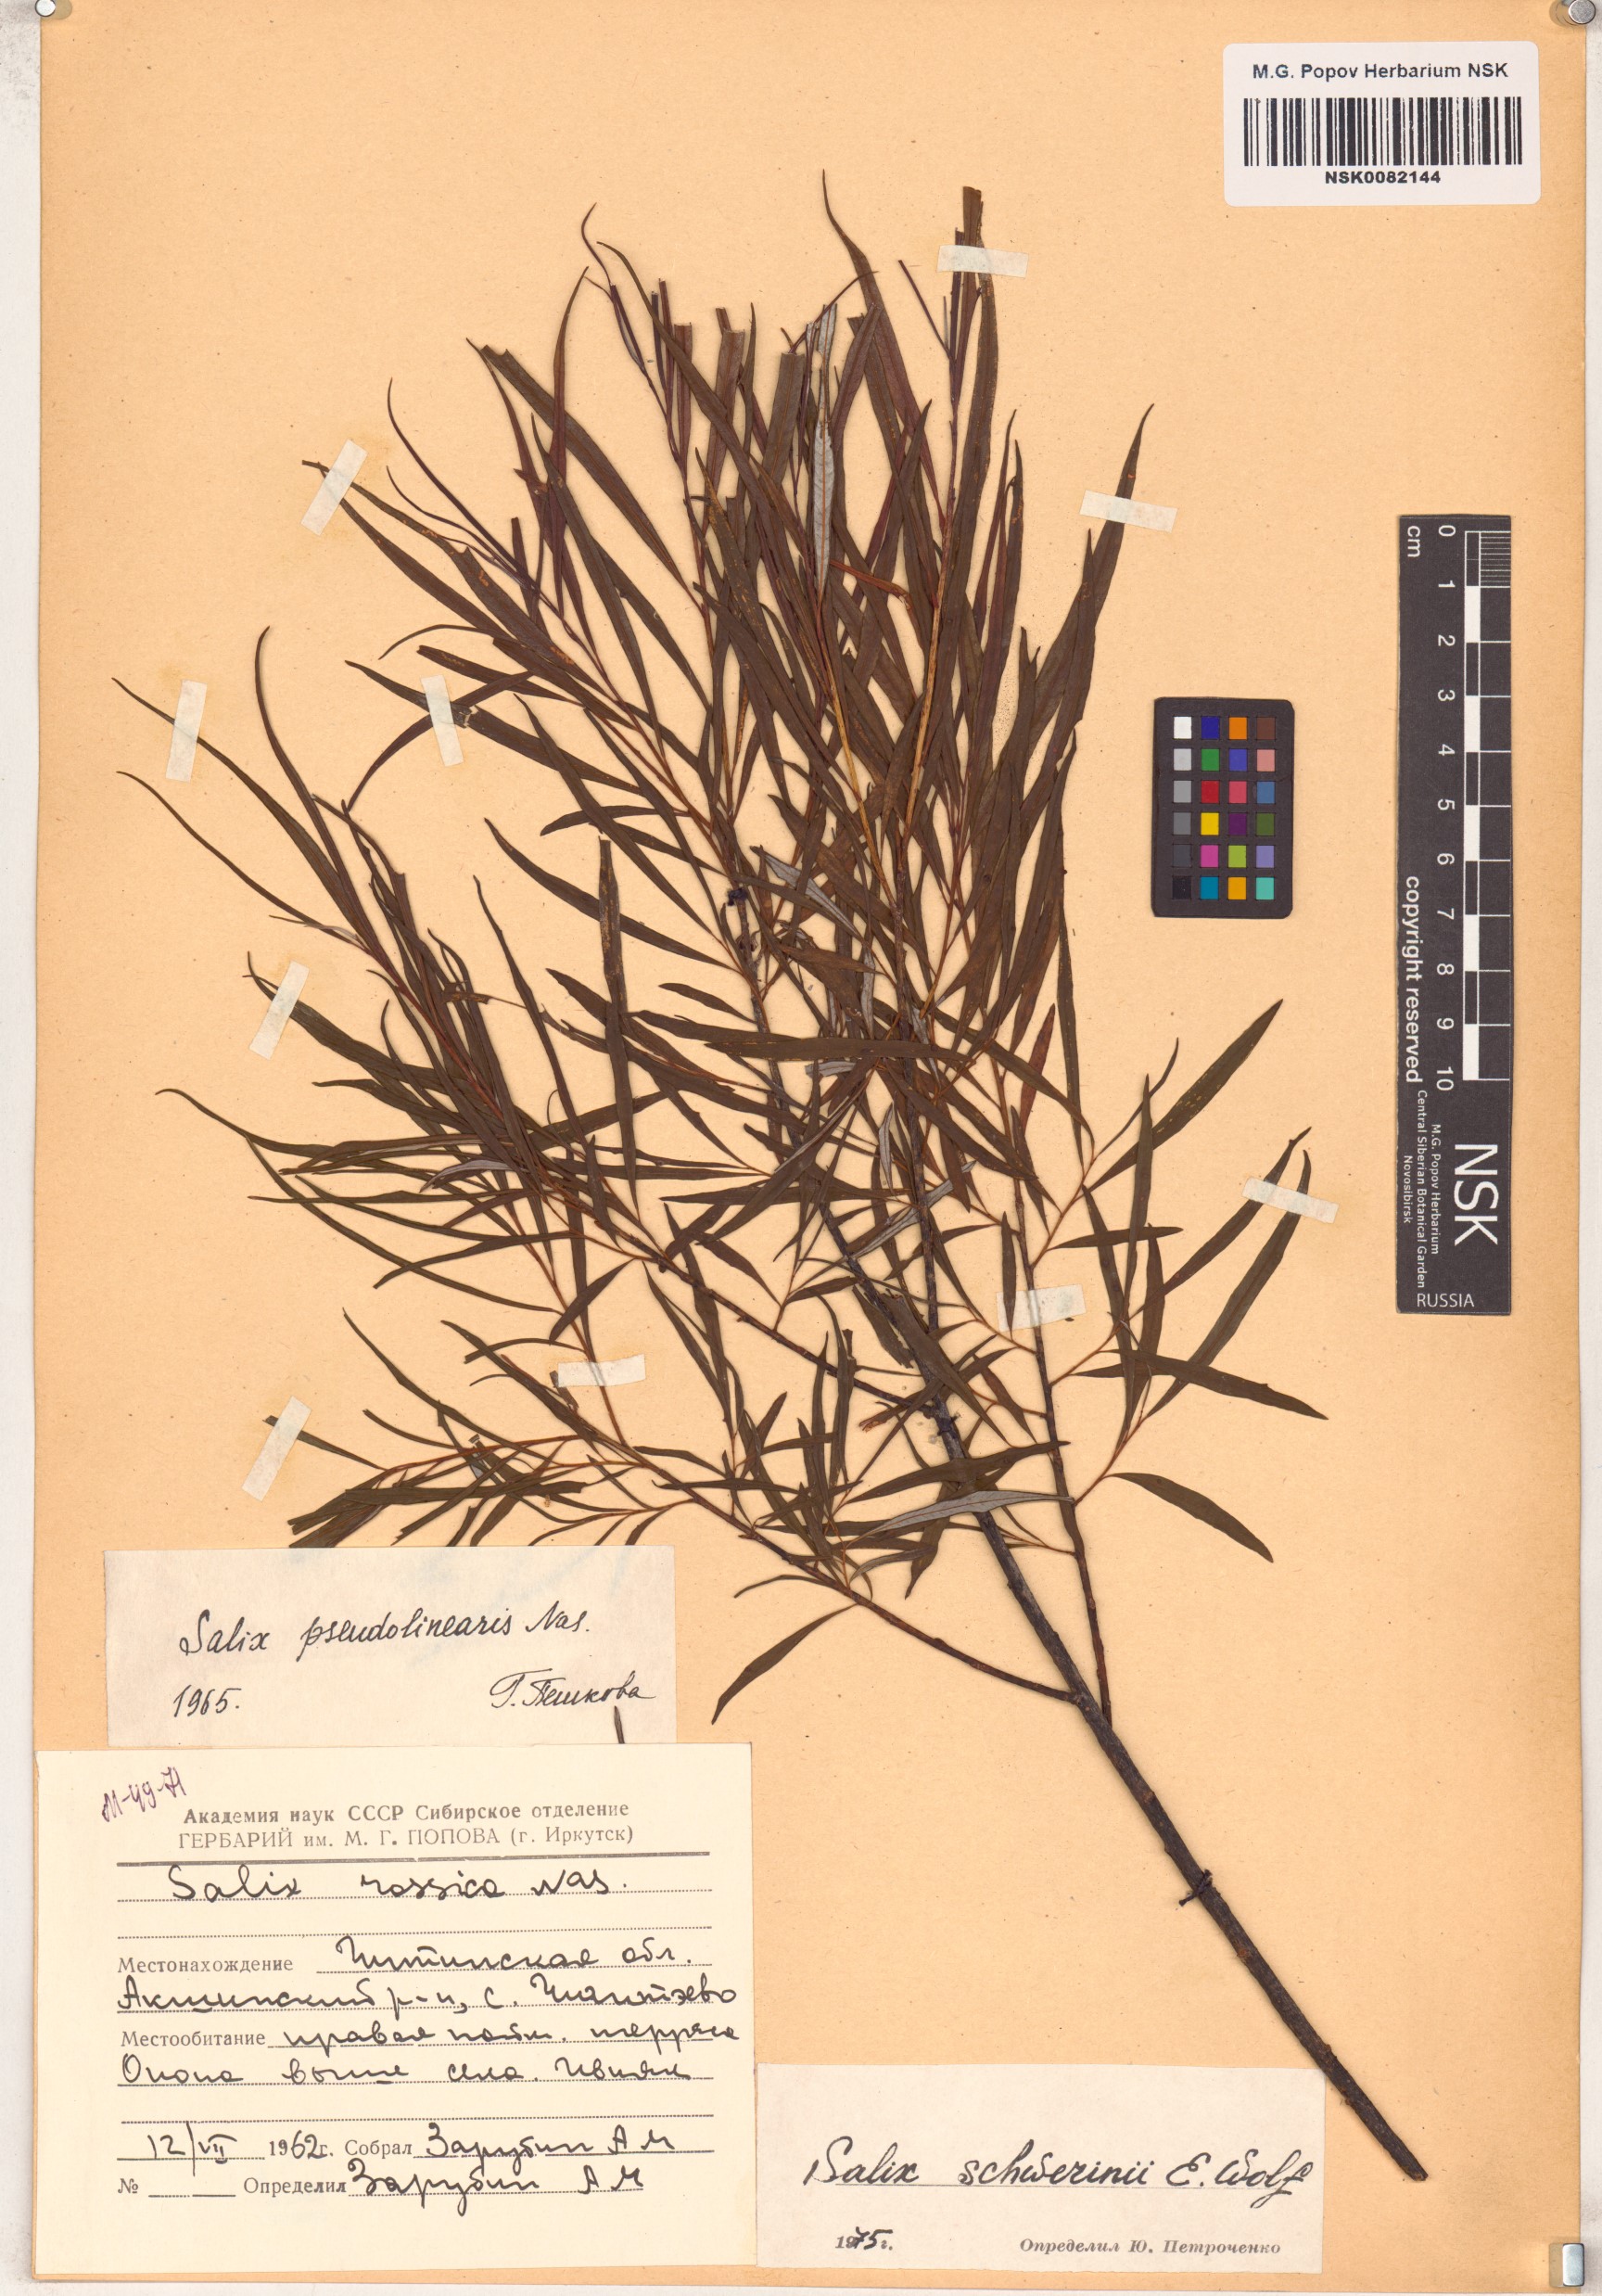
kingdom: Plantae
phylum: Tracheophyta
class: Magnoliopsida
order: Malpighiales
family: Salicaceae
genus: Salix
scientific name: Salix schwerinii
